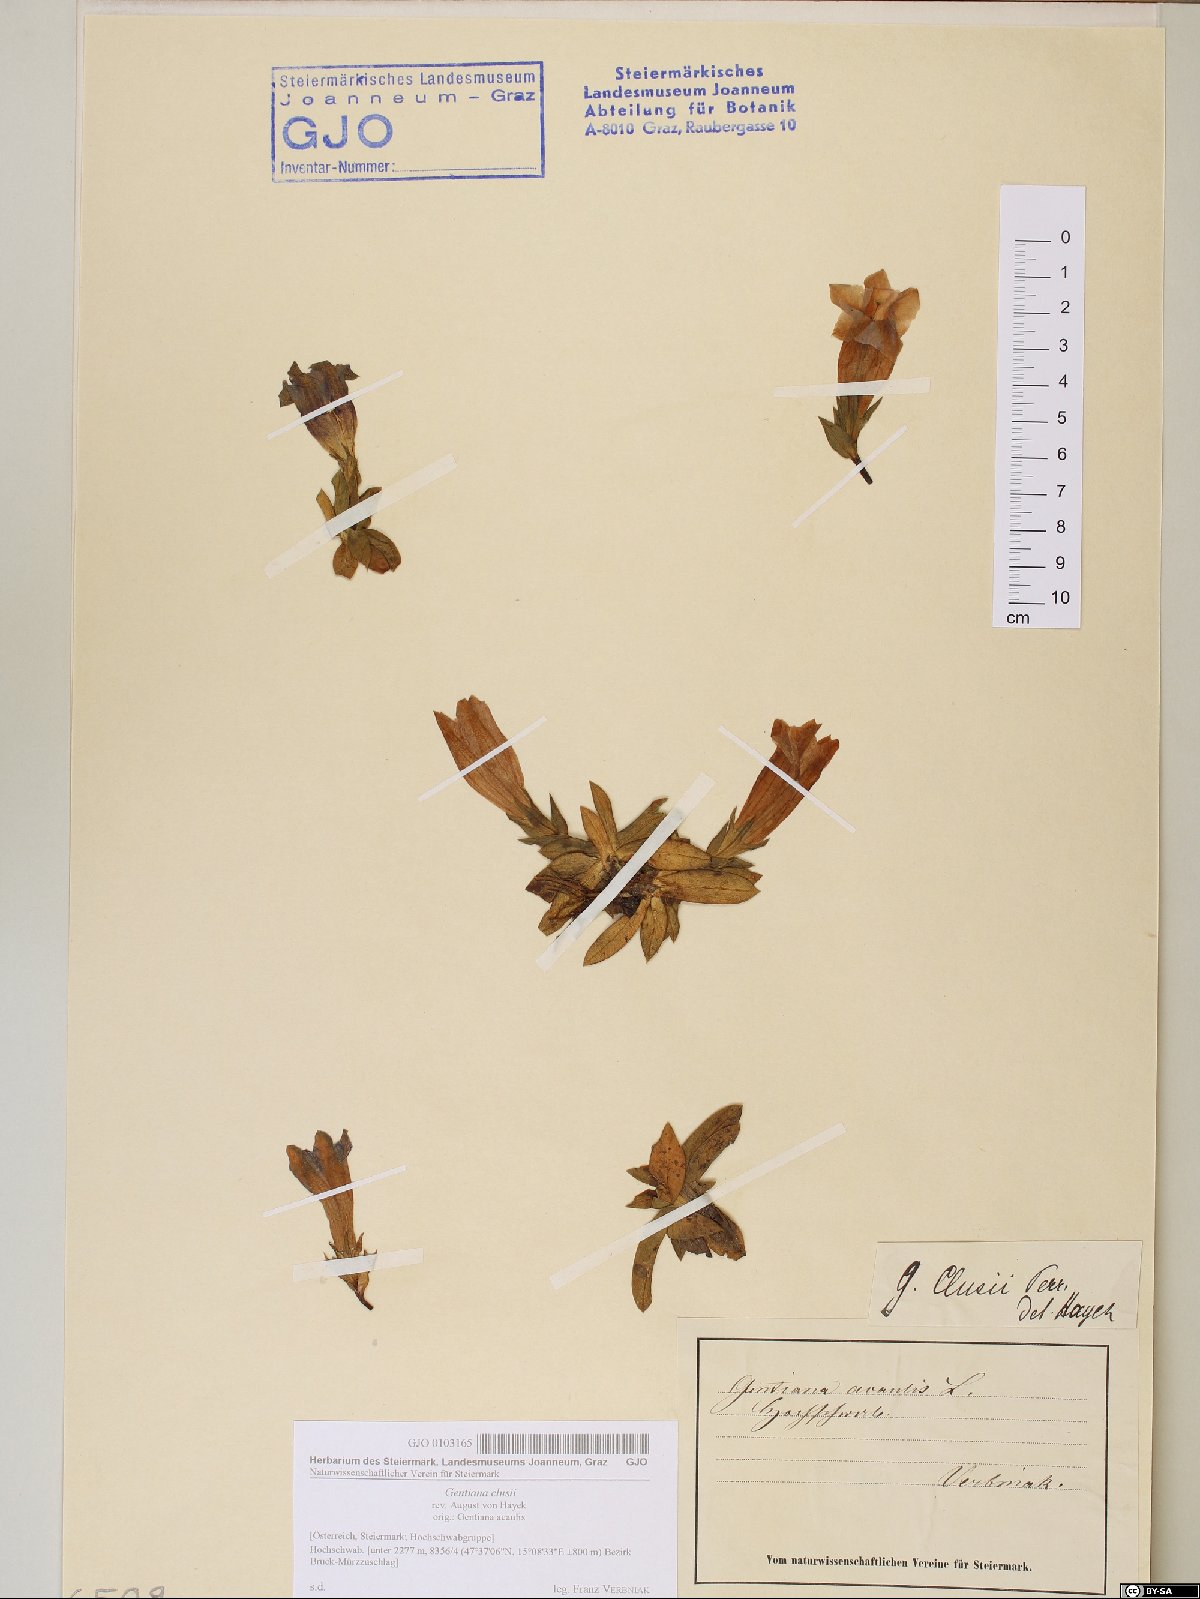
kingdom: Plantae
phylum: Tracheophyta
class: Magnoliopsida
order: Gentianales
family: Gentianaceae
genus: Gentiana
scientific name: Gentiana clusii
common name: Trumpet gentian
